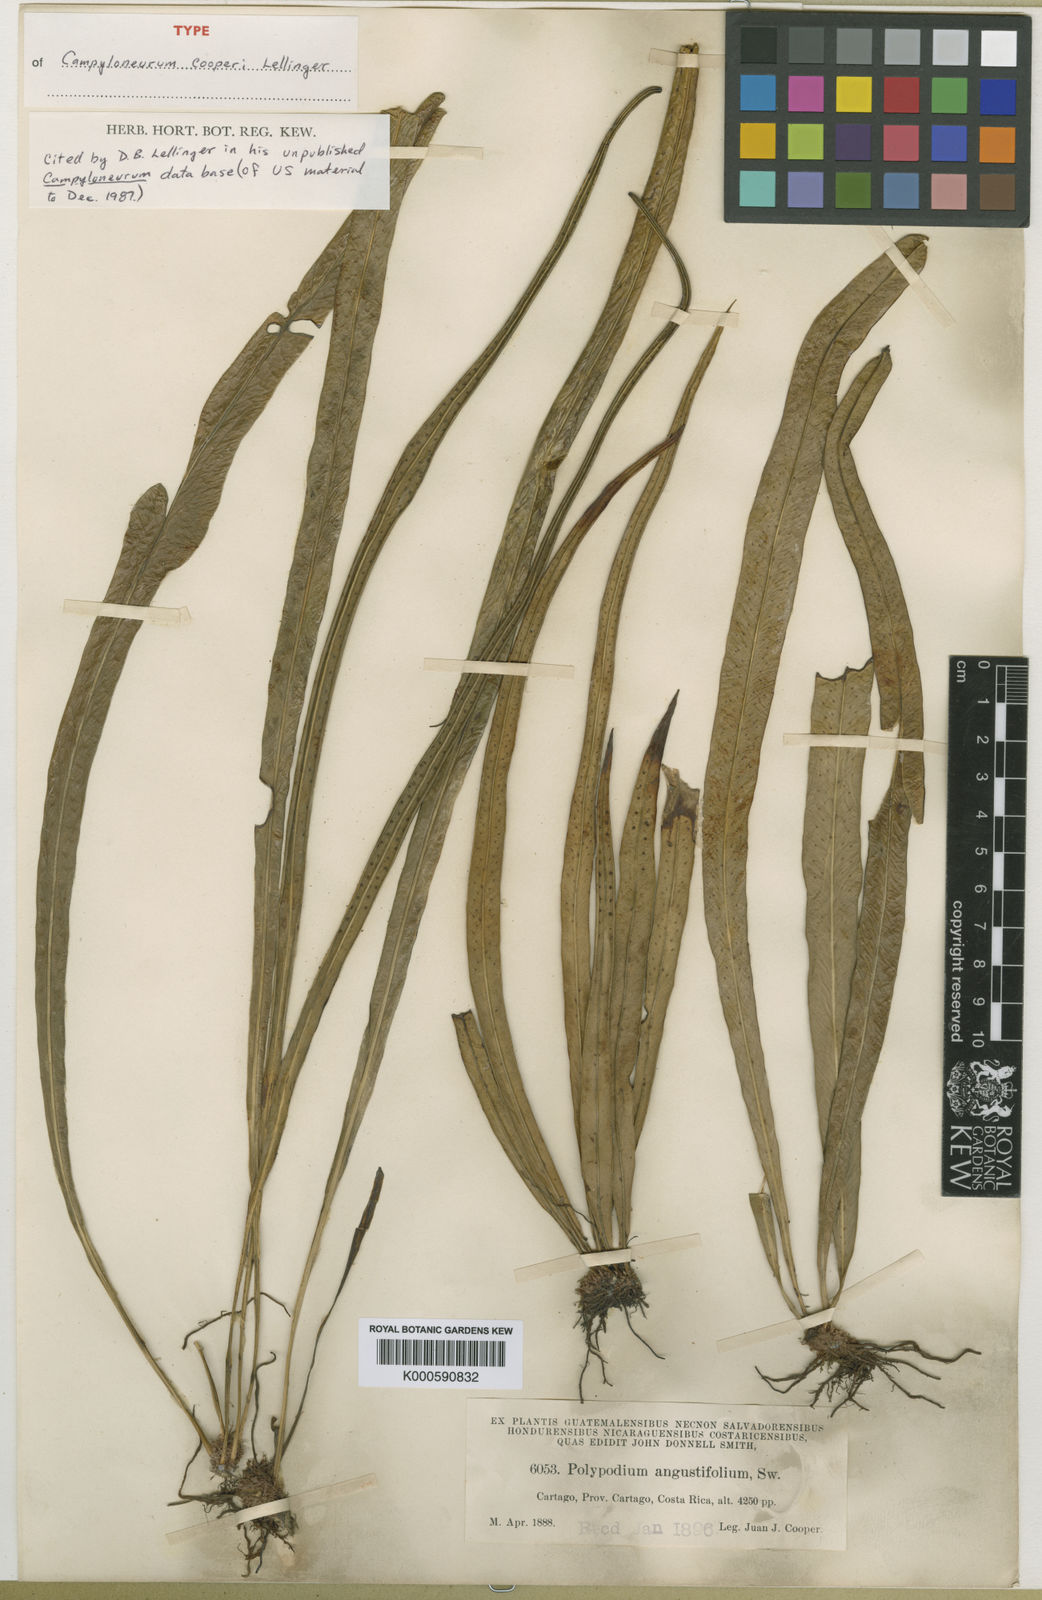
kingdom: Plantae
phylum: Tracheophyta
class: Polypodiopsida
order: Polypodiales
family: Polypodiaceae
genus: Campyloneurum
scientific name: Campyloneurum amphostenon
